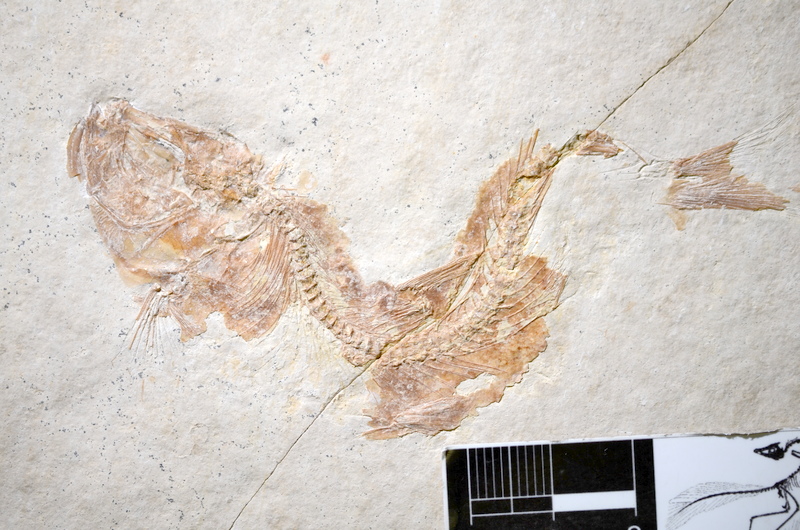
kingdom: Animalia
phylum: Chordata
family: Ascalaboidae
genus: Tharsis
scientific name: Tharsis dubius
